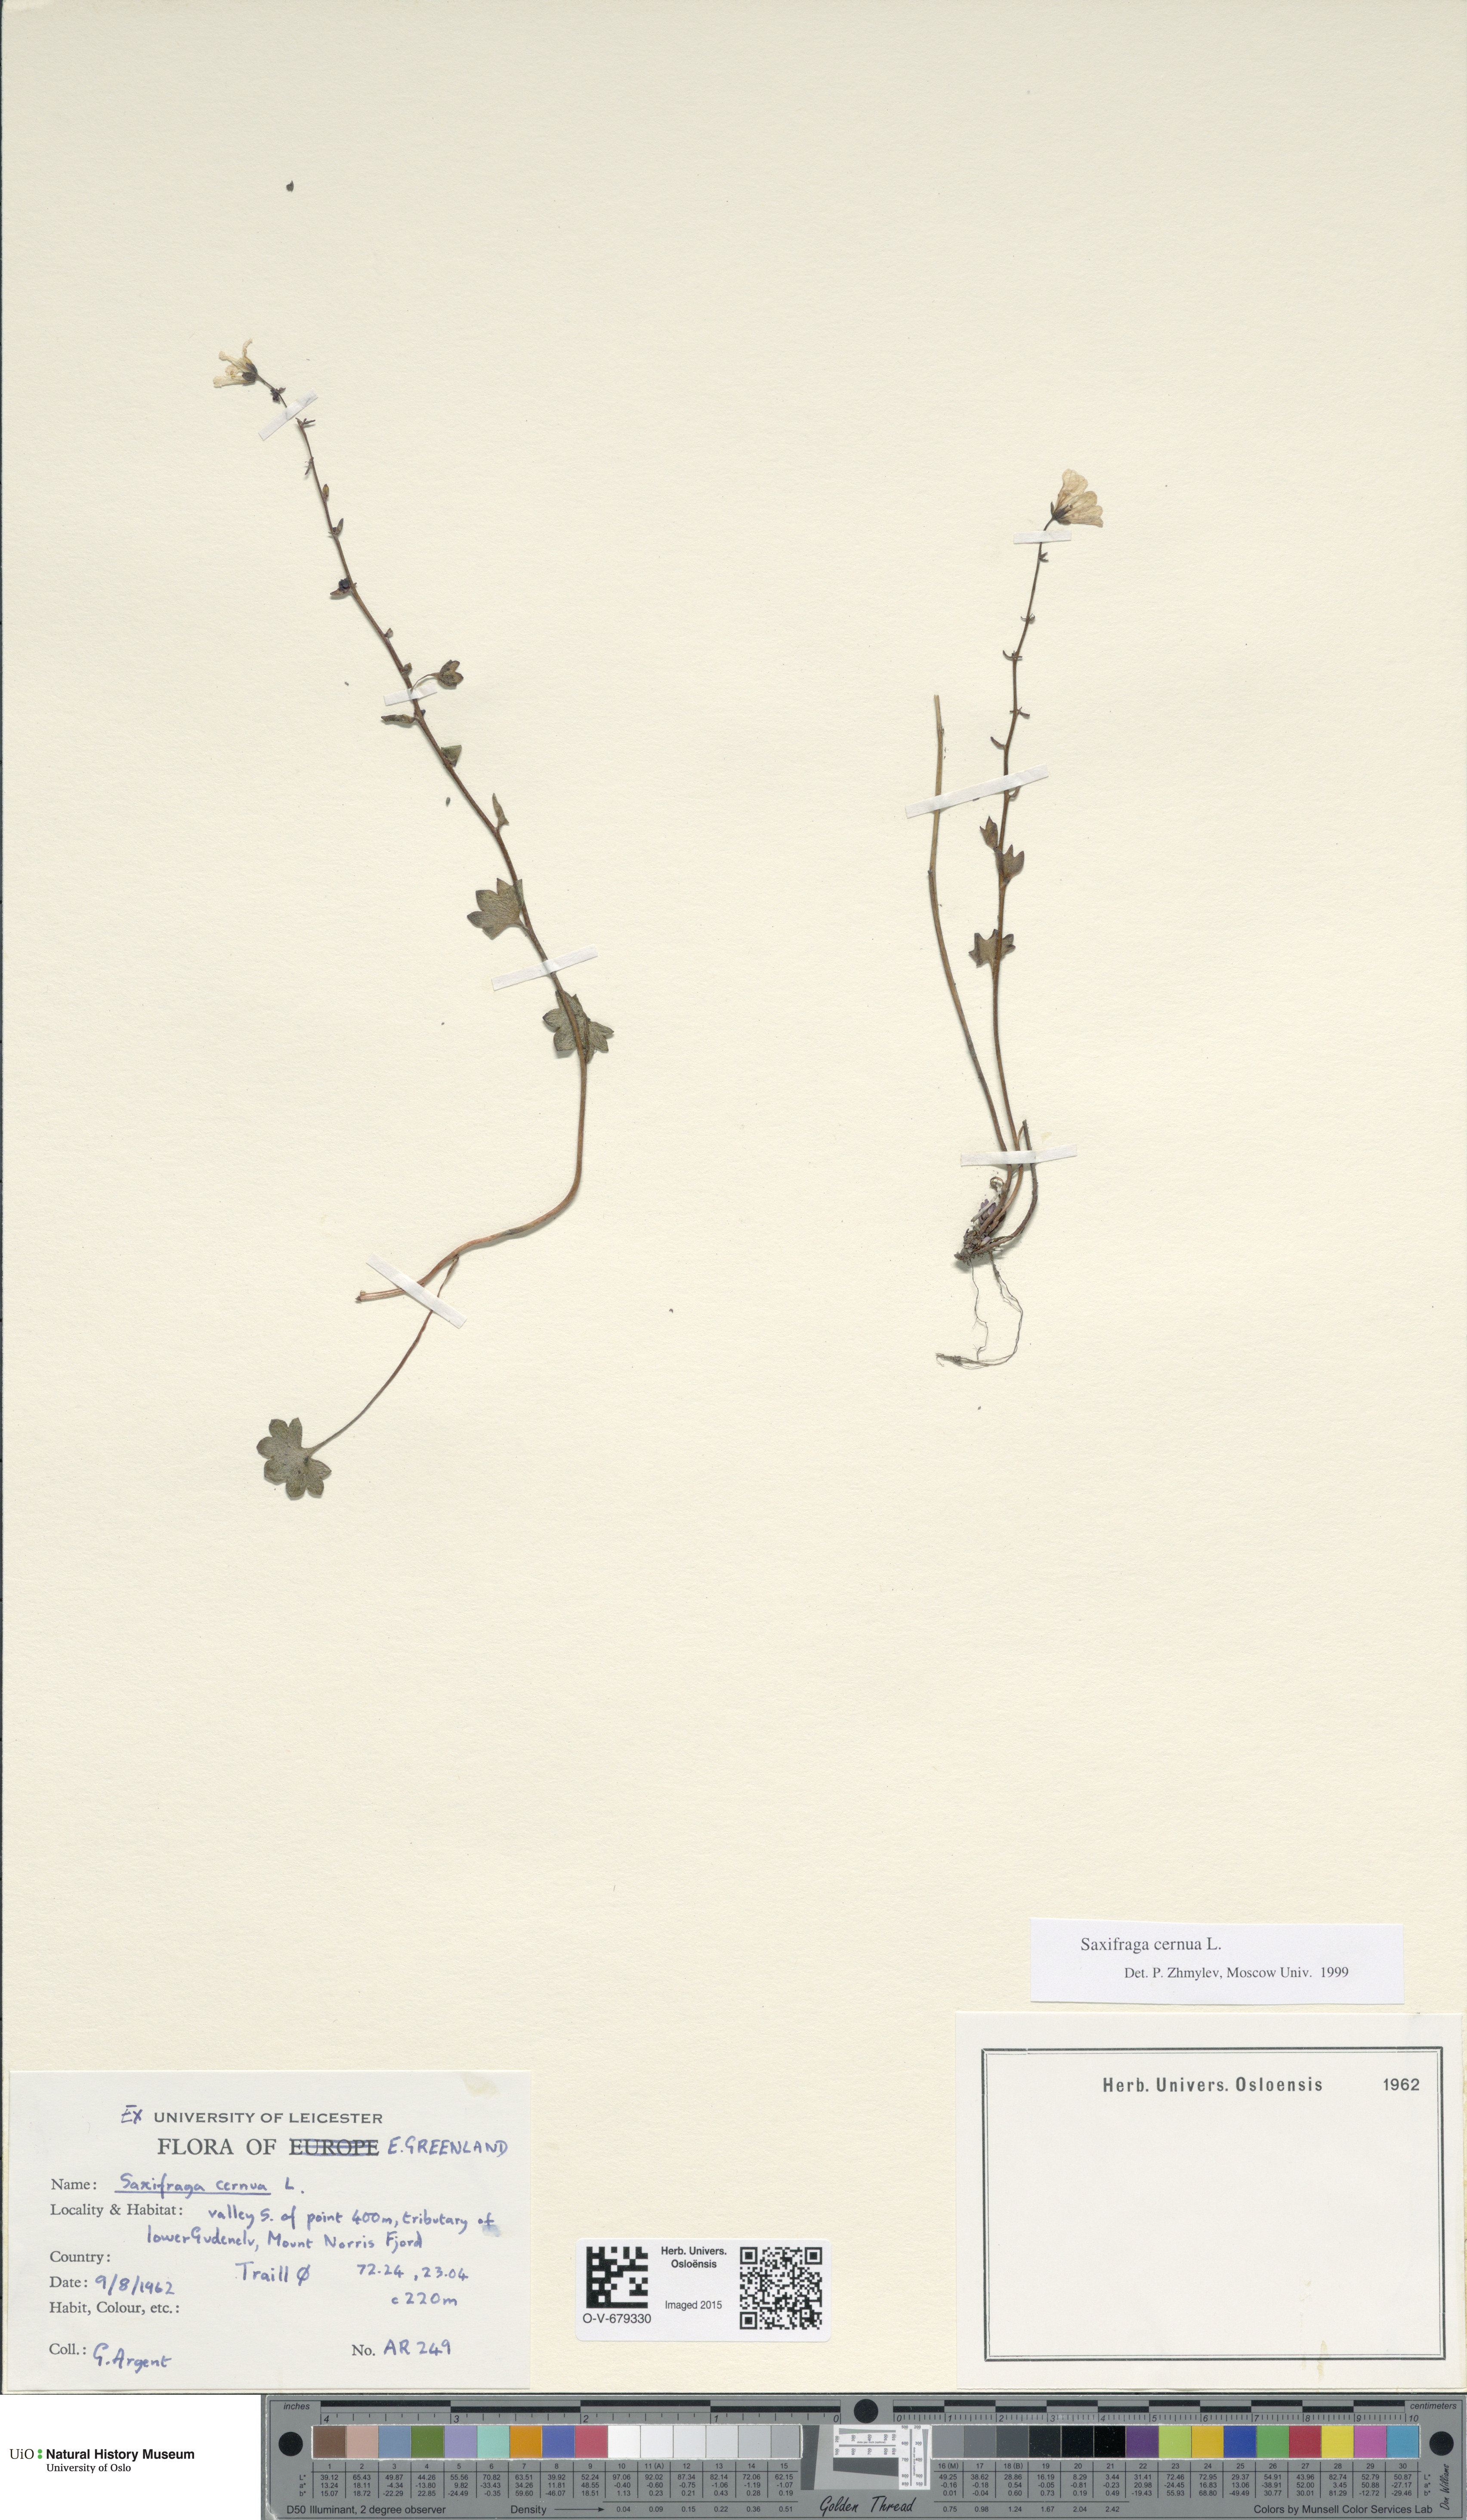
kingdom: Plantae
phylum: Tracheophyta
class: Magnoliopsida
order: Saxifragales
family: Saxifragaceae
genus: Saxifraga
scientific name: Saxifraga cernua
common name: Drooping saxifrage
